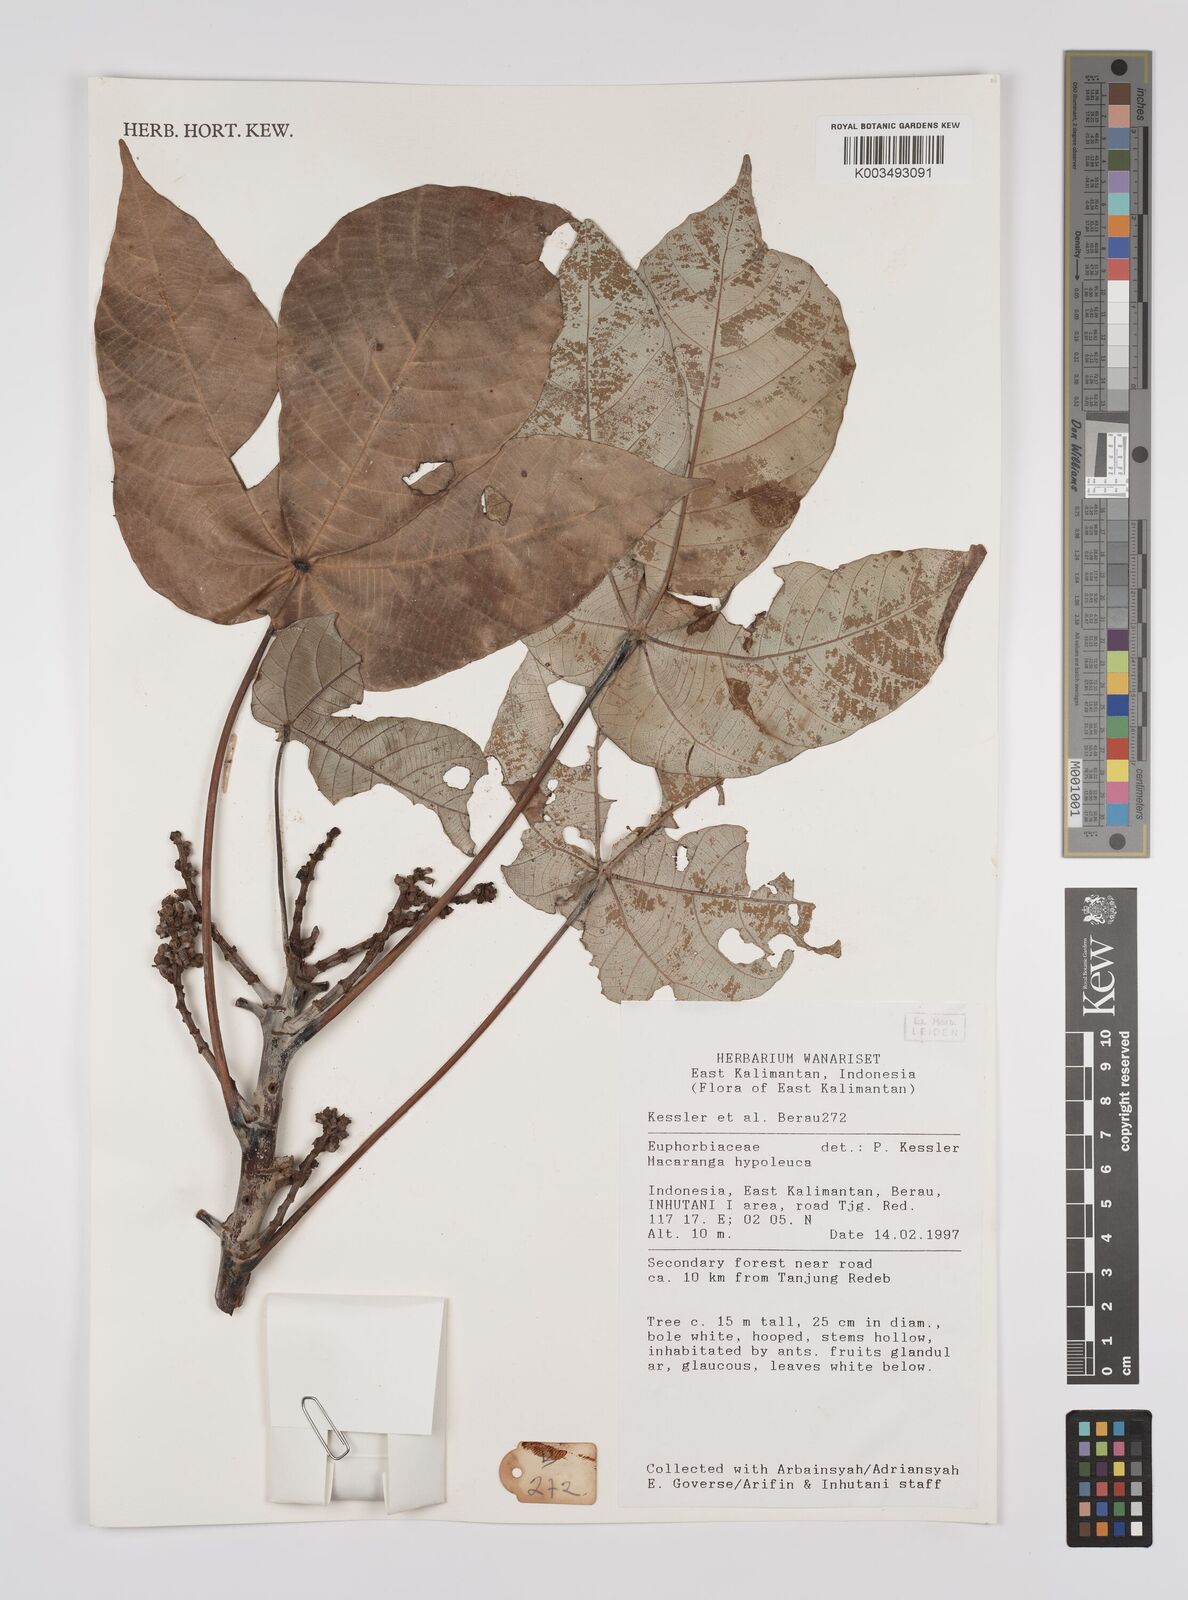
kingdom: Plantae
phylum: Tracheophyta
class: Magnoliopsida
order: Malpighiales
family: Euphorbiaceae
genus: Macaranga
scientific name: Macaranga hypoleuca
